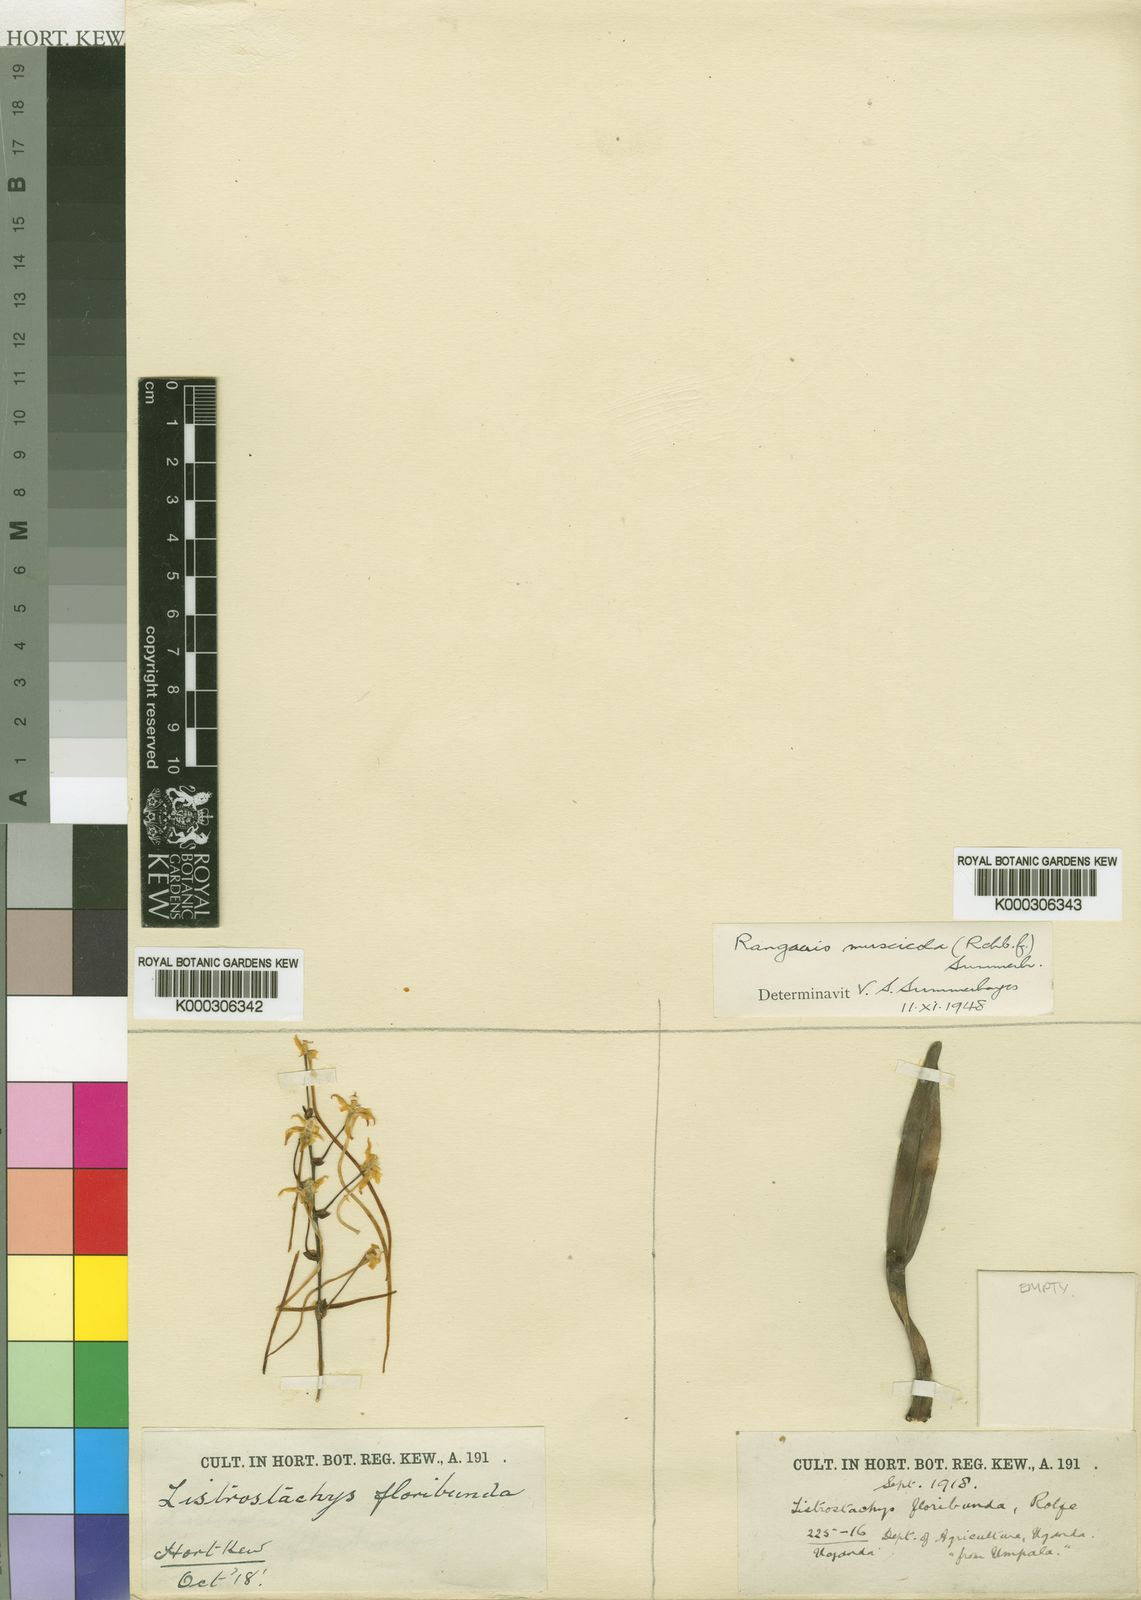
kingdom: Plantae
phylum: Tracheophyta
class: Liliopsida
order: Asparagales
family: Orchidaceae
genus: Rangaeris
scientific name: Rangaeris muscicola
